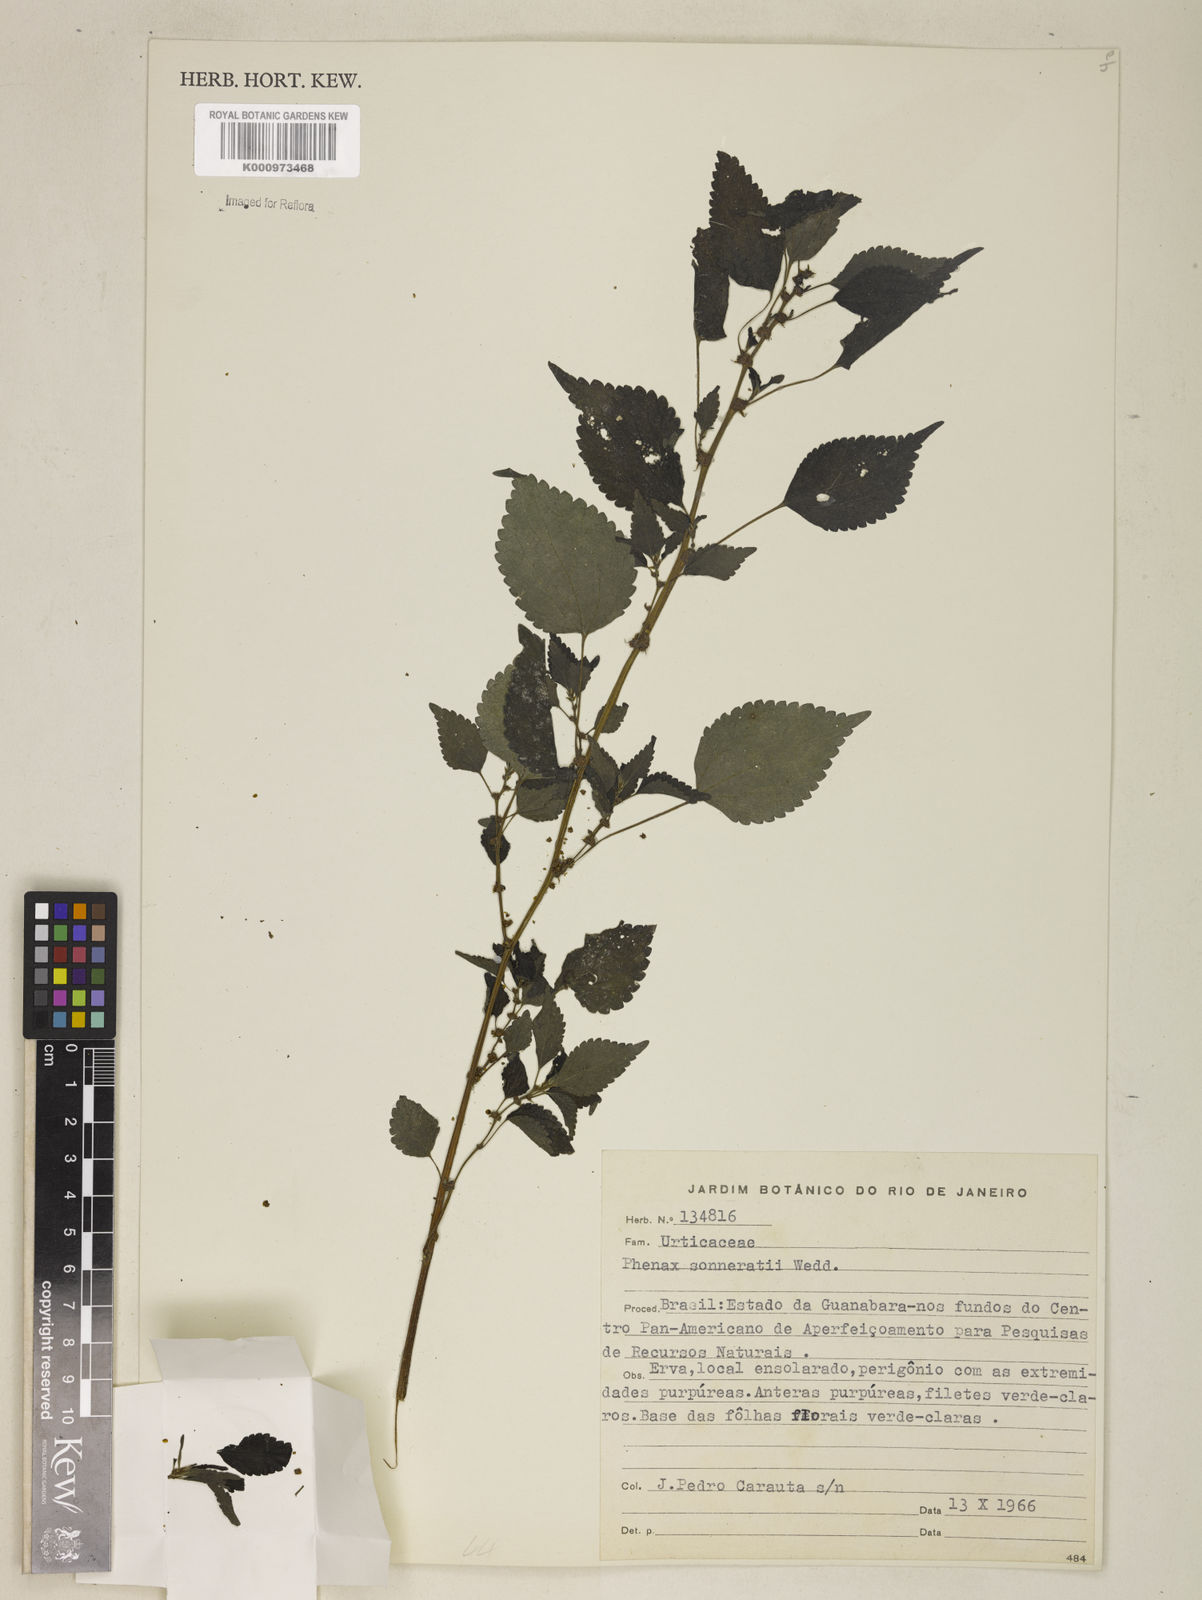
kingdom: Plantae
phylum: Tracheophyta
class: Magnoliopsida
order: Rosales
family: Urticaceae
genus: Phenax
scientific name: Phenax sonneratii
